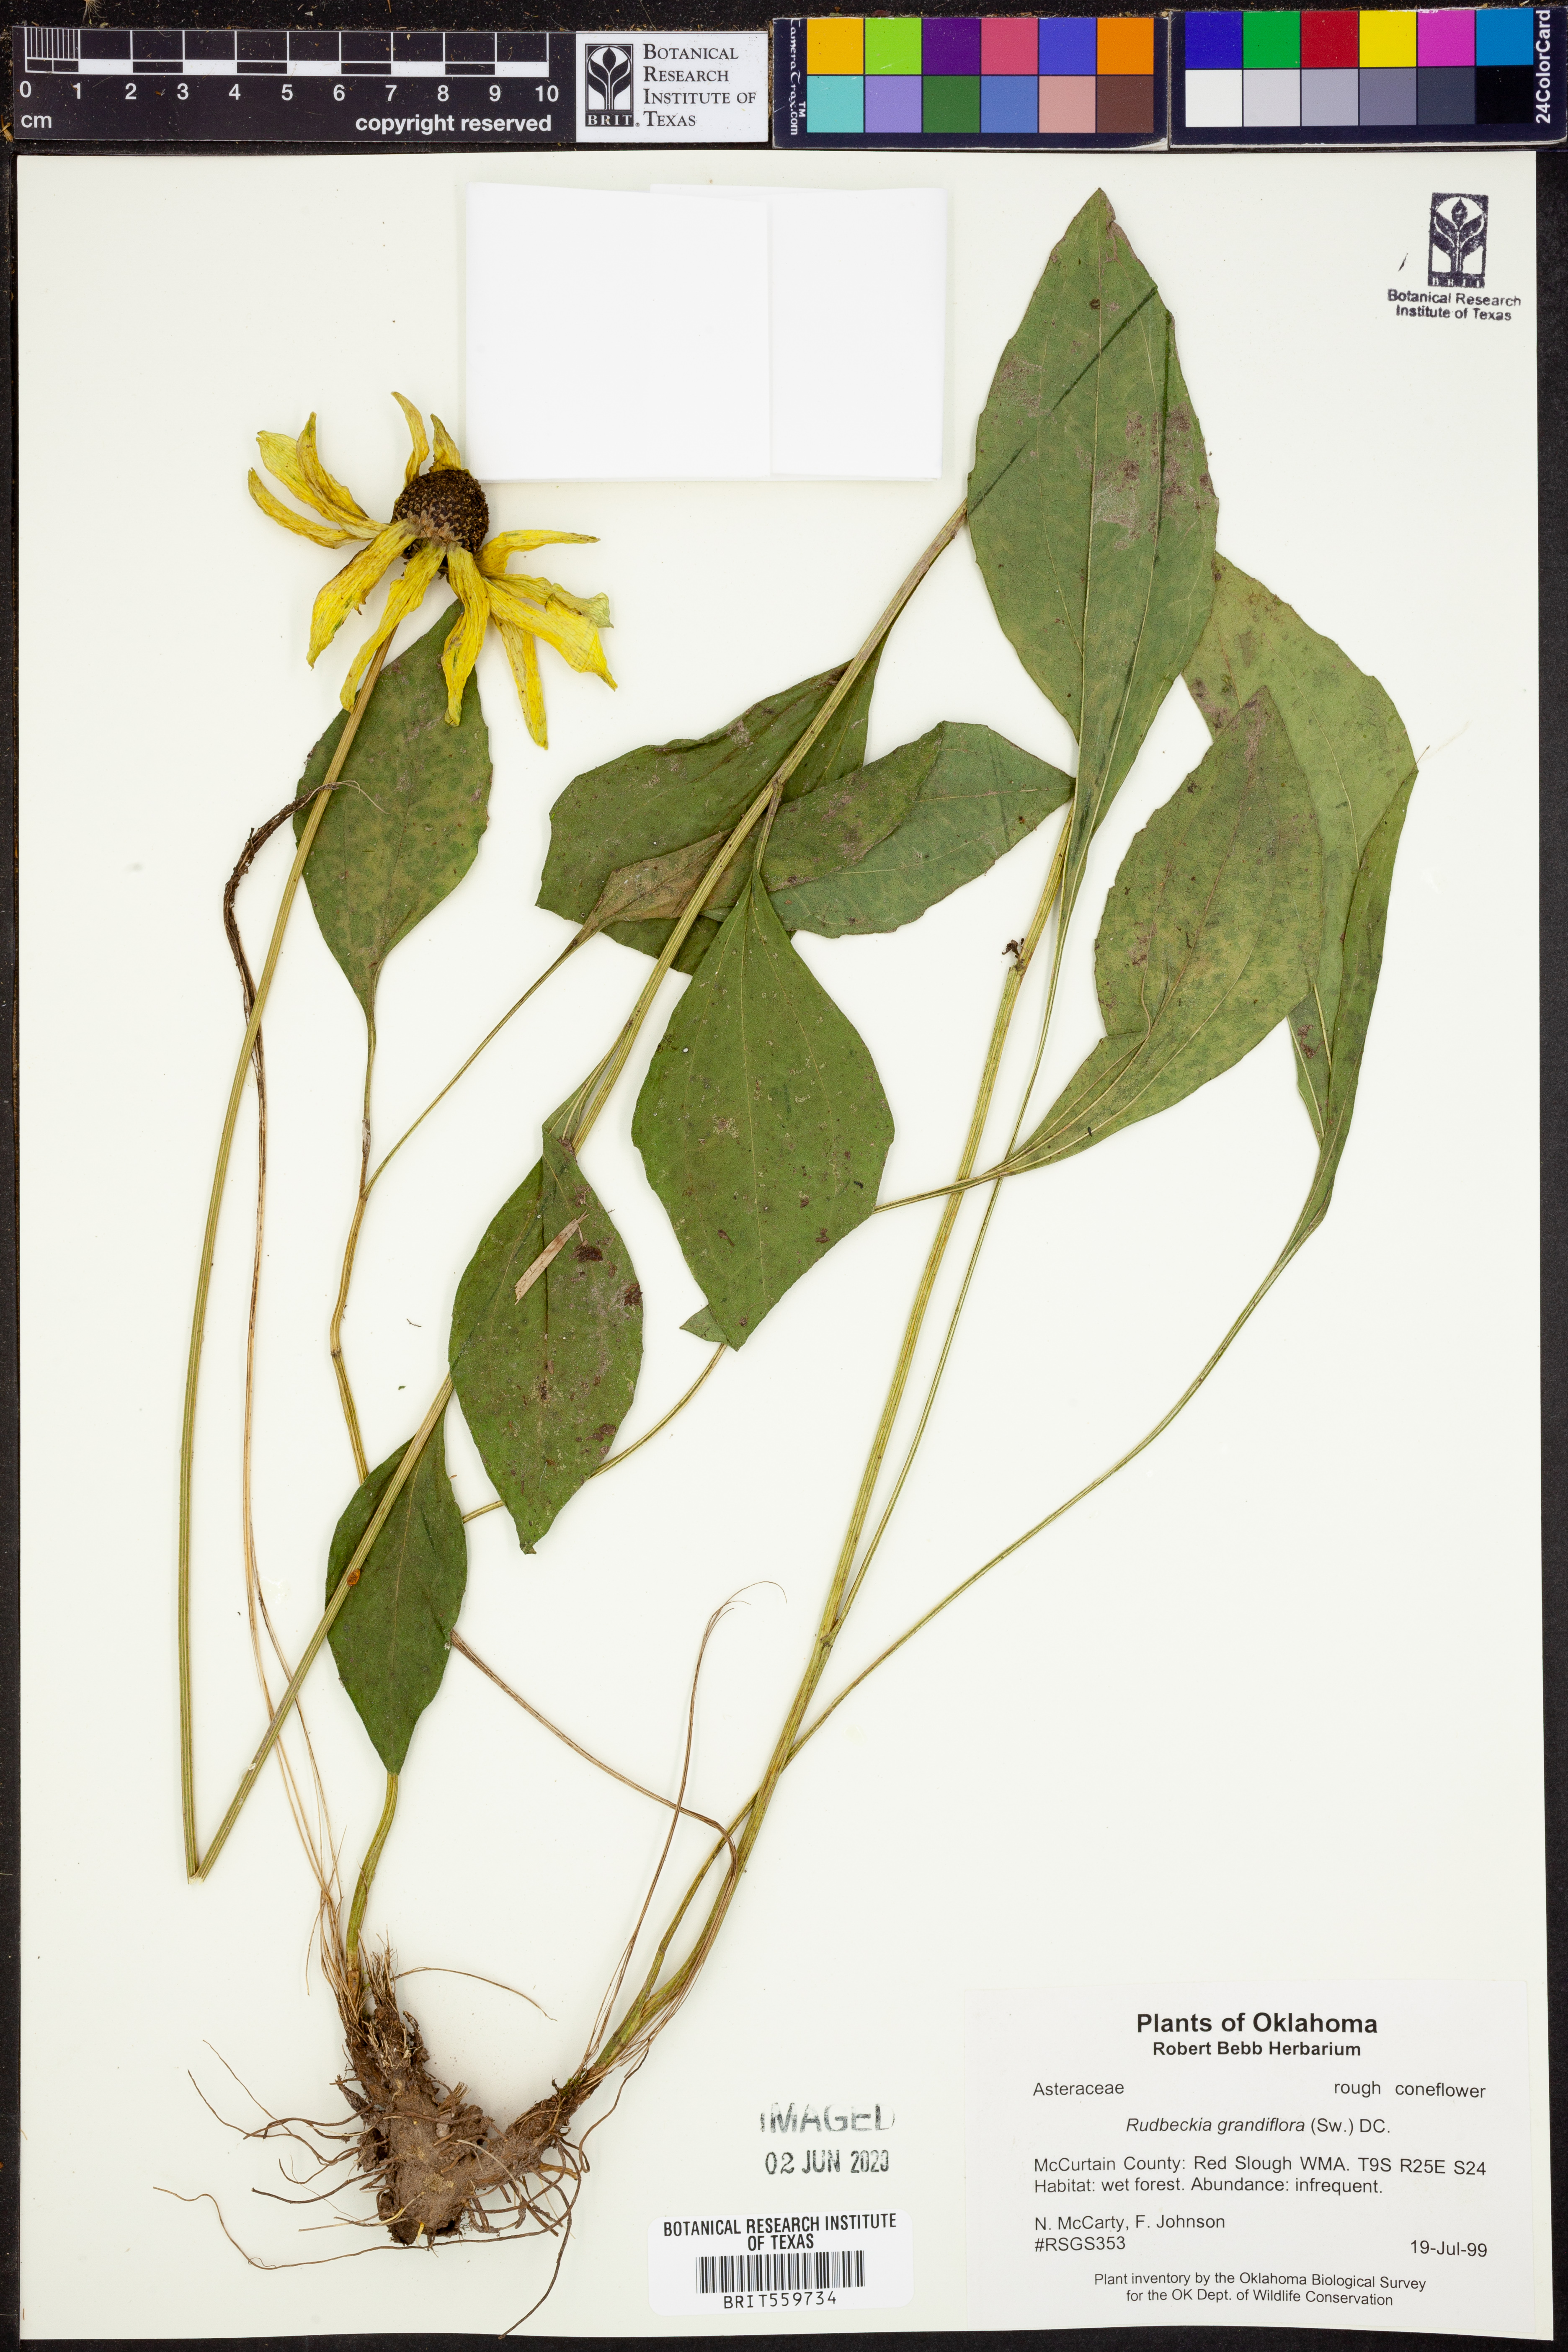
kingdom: Plantae
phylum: Tracheophyta
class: Magnoliopsida
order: Asterales
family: Asteraceae
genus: Rudbeckia
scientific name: Rudbeckia grandiflora
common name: Large-flowered coneflower
